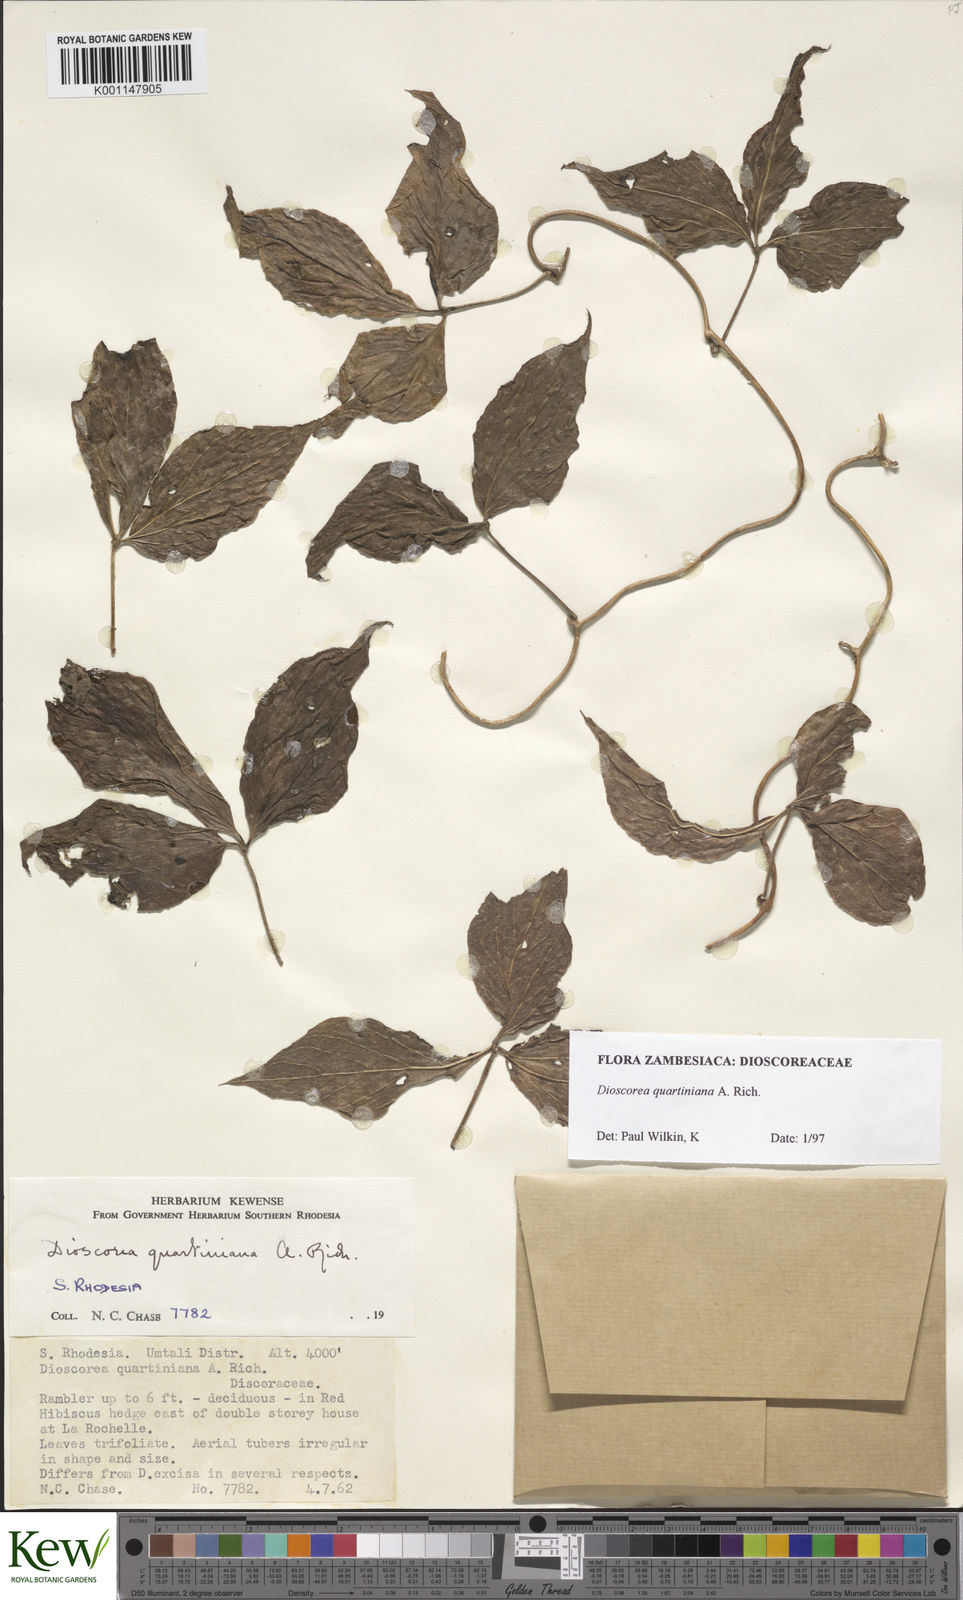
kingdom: Plantae
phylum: Tracheophyta
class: Liliopsida
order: Dioscoreales
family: Dioscoreaceae
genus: Dioscorea
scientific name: Dioscorea quartiniana
